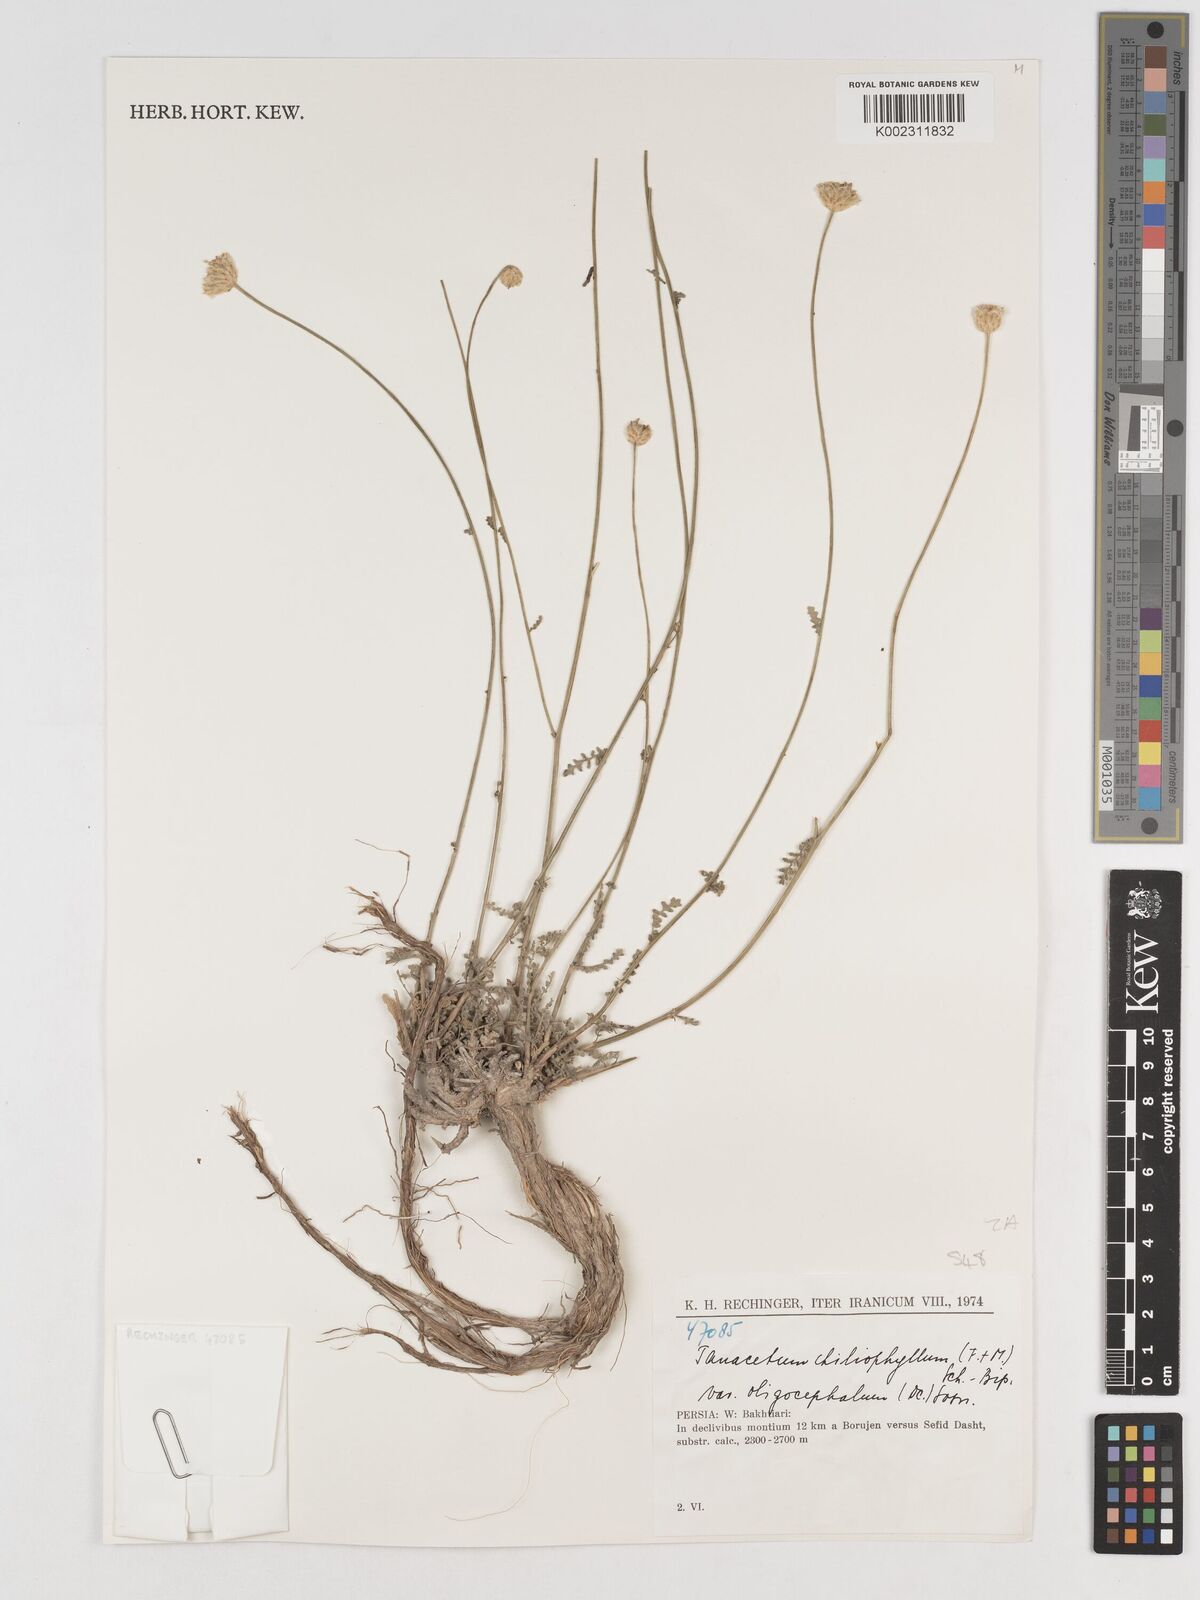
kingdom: Plantae
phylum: Tracheophyta
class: Magnoliopsida
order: Asterales
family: Asteraceae
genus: Tanacetum
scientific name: Tanacetum aureum
